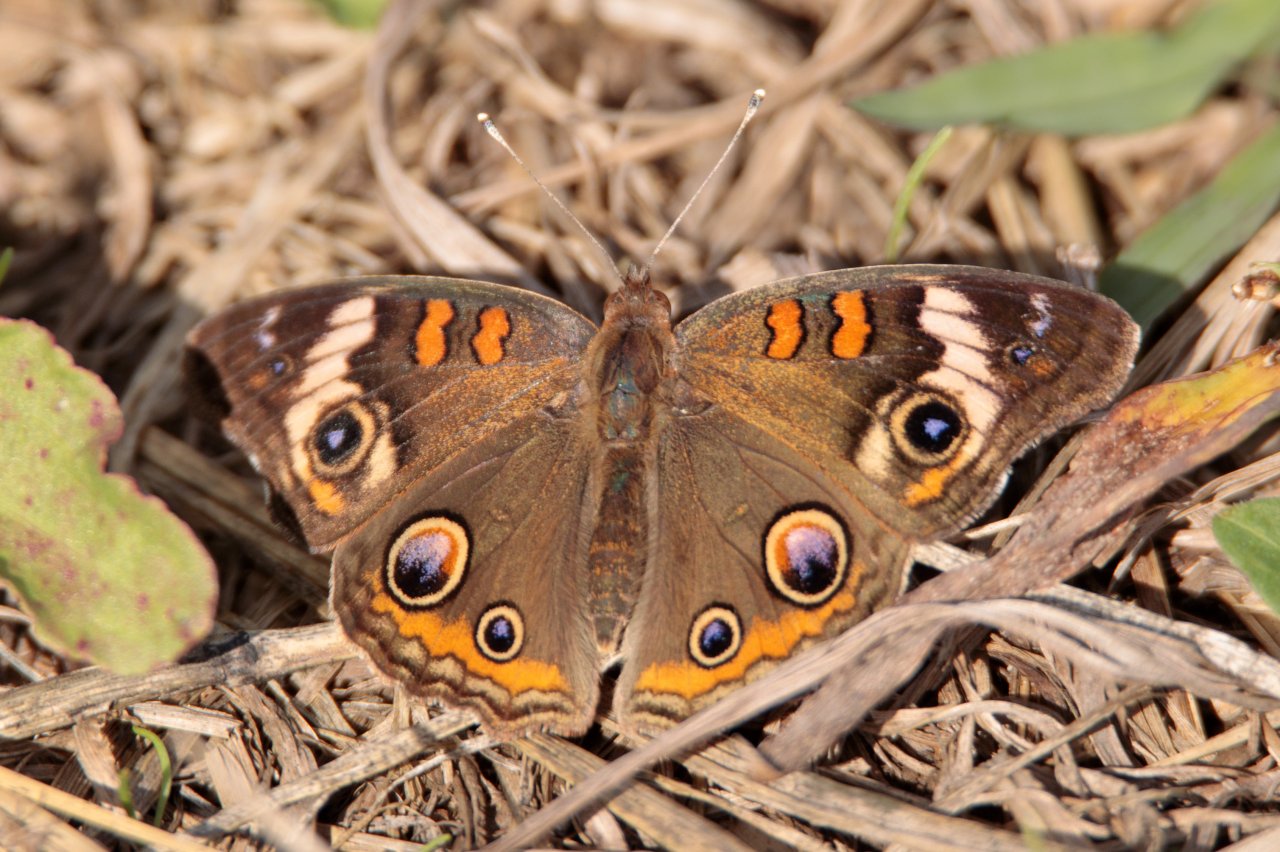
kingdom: Animalia
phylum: Arthropoda
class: Insecta
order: Lepidoptera
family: Nymphalidae
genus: Junonia
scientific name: Junonia coenia
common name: Common Buckeye
